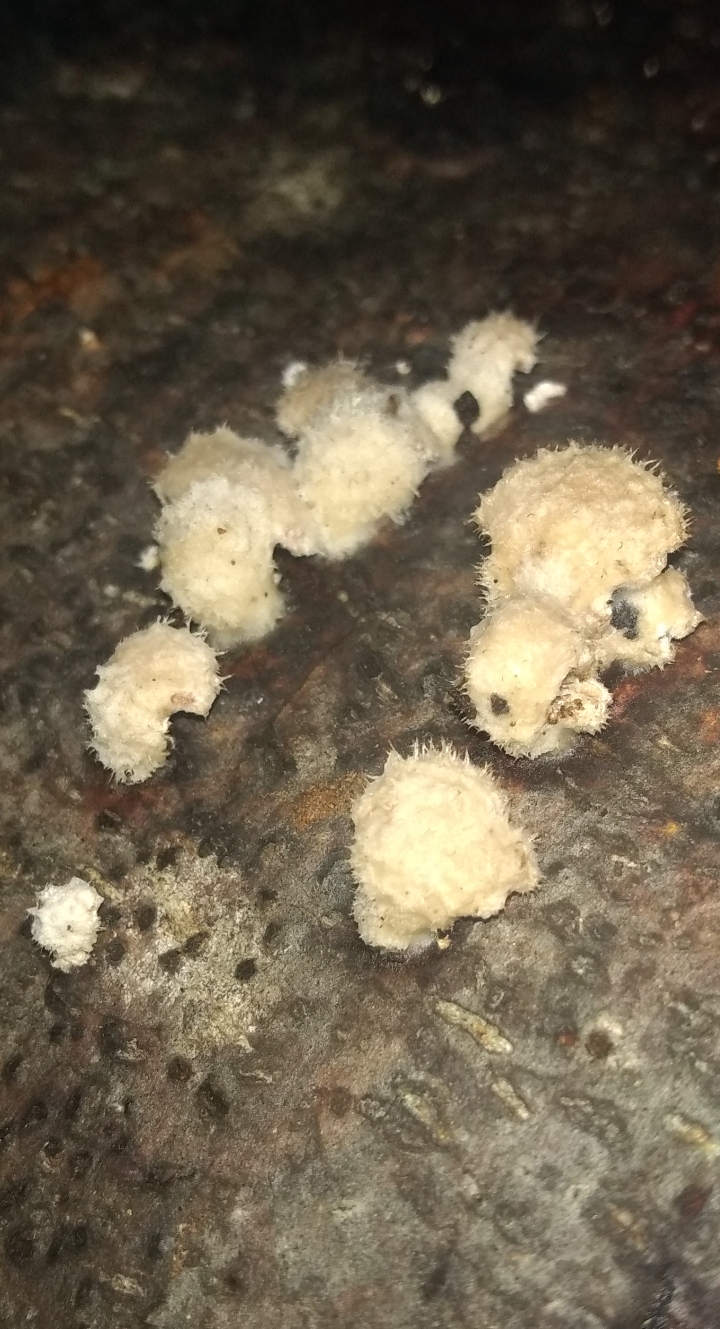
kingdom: Fungi
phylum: Basidiomycota
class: Agaricomycetes
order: Agaricales
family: Schizophyllaceae
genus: Schizophyllum
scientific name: Schizophyllum commune
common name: kløvblad
